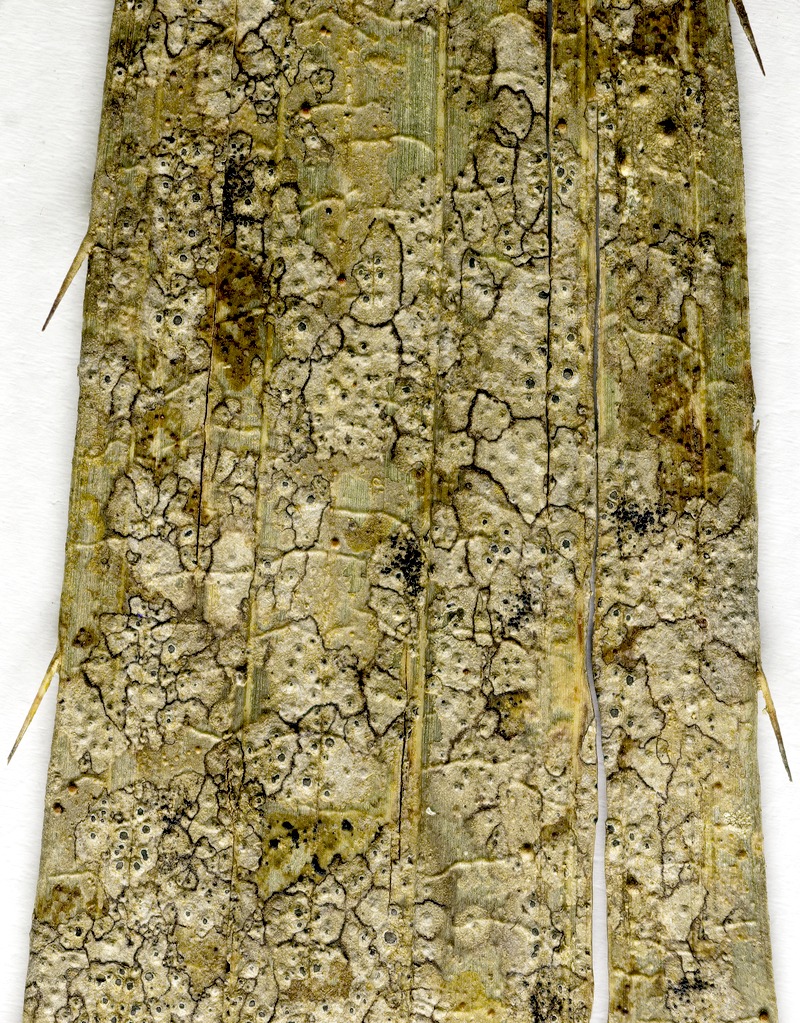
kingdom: Fungi
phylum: Ascomycota
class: Dothideomycetes
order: Microthyriales
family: Microthyriaceae
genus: Lichenopeltella
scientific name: Lichenopeltella epiphylla
